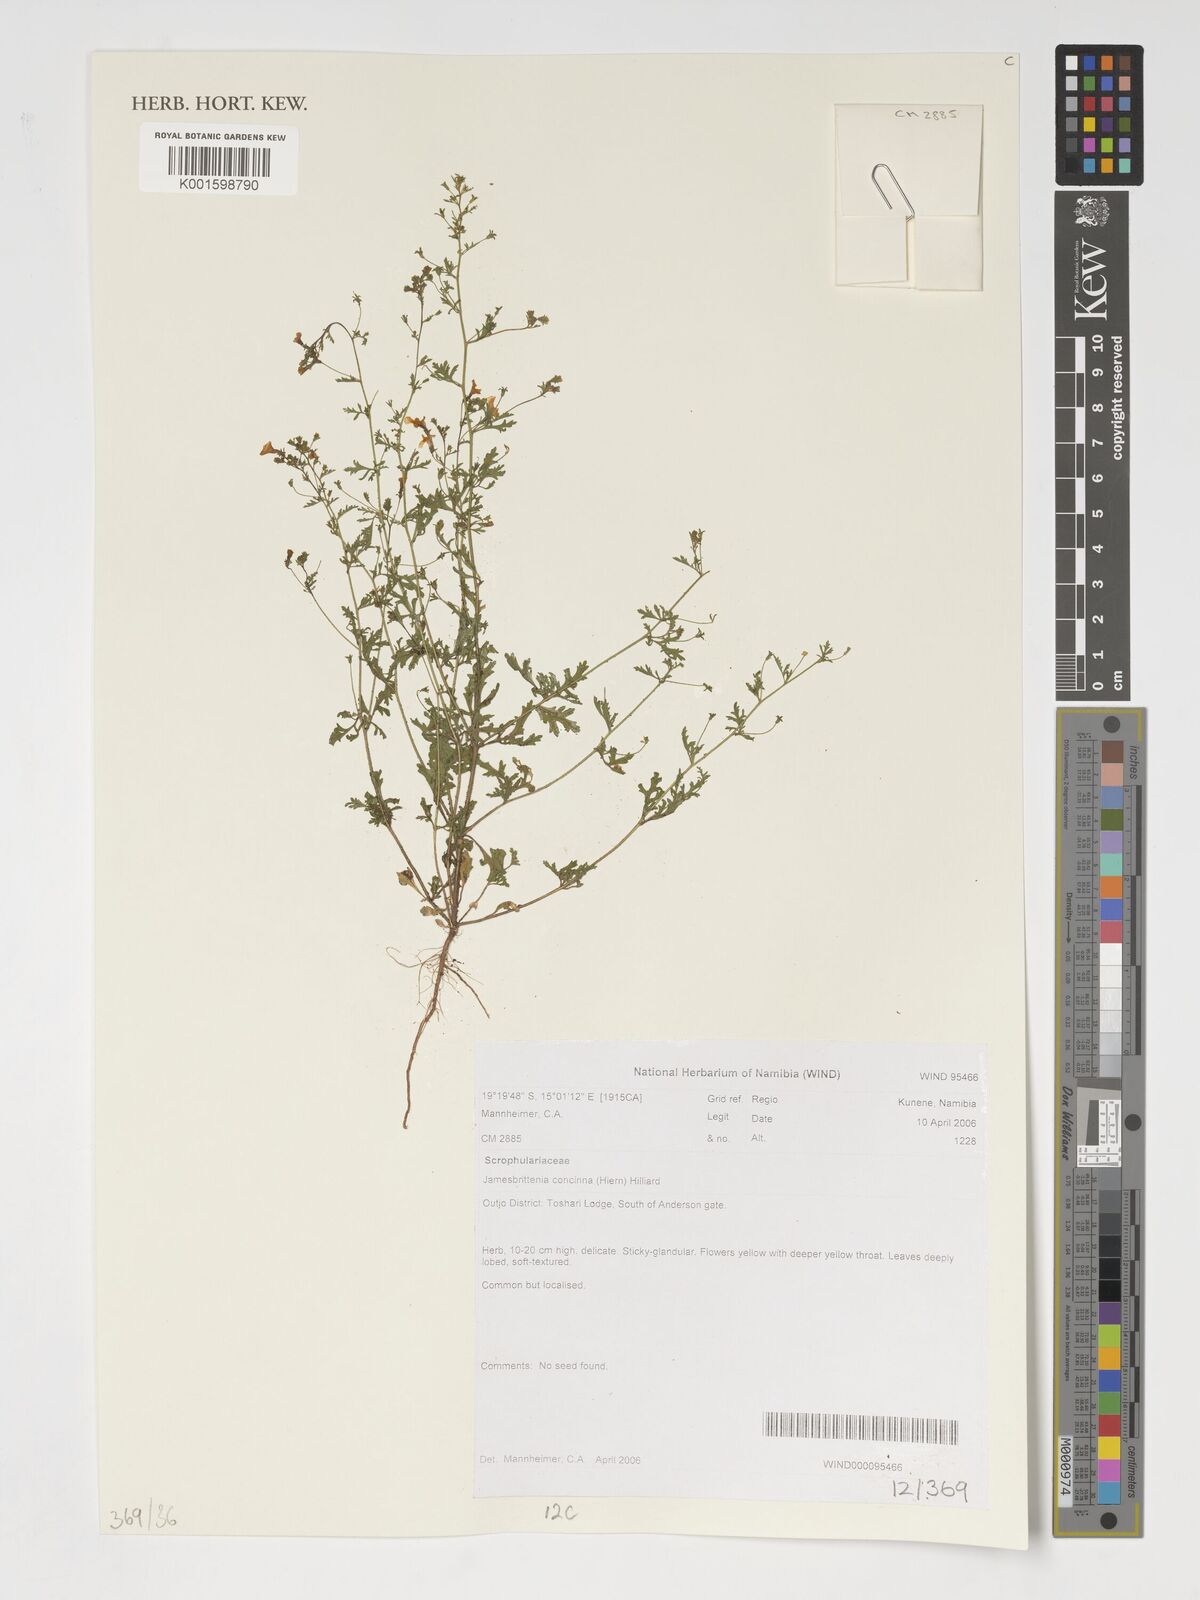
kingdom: Plantae
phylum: Tracheophyta
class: Magnoliopsida
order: Lamiales
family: Scrophulariaceae
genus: Jamesbrittenia
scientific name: Jamesbrittenia concinna
